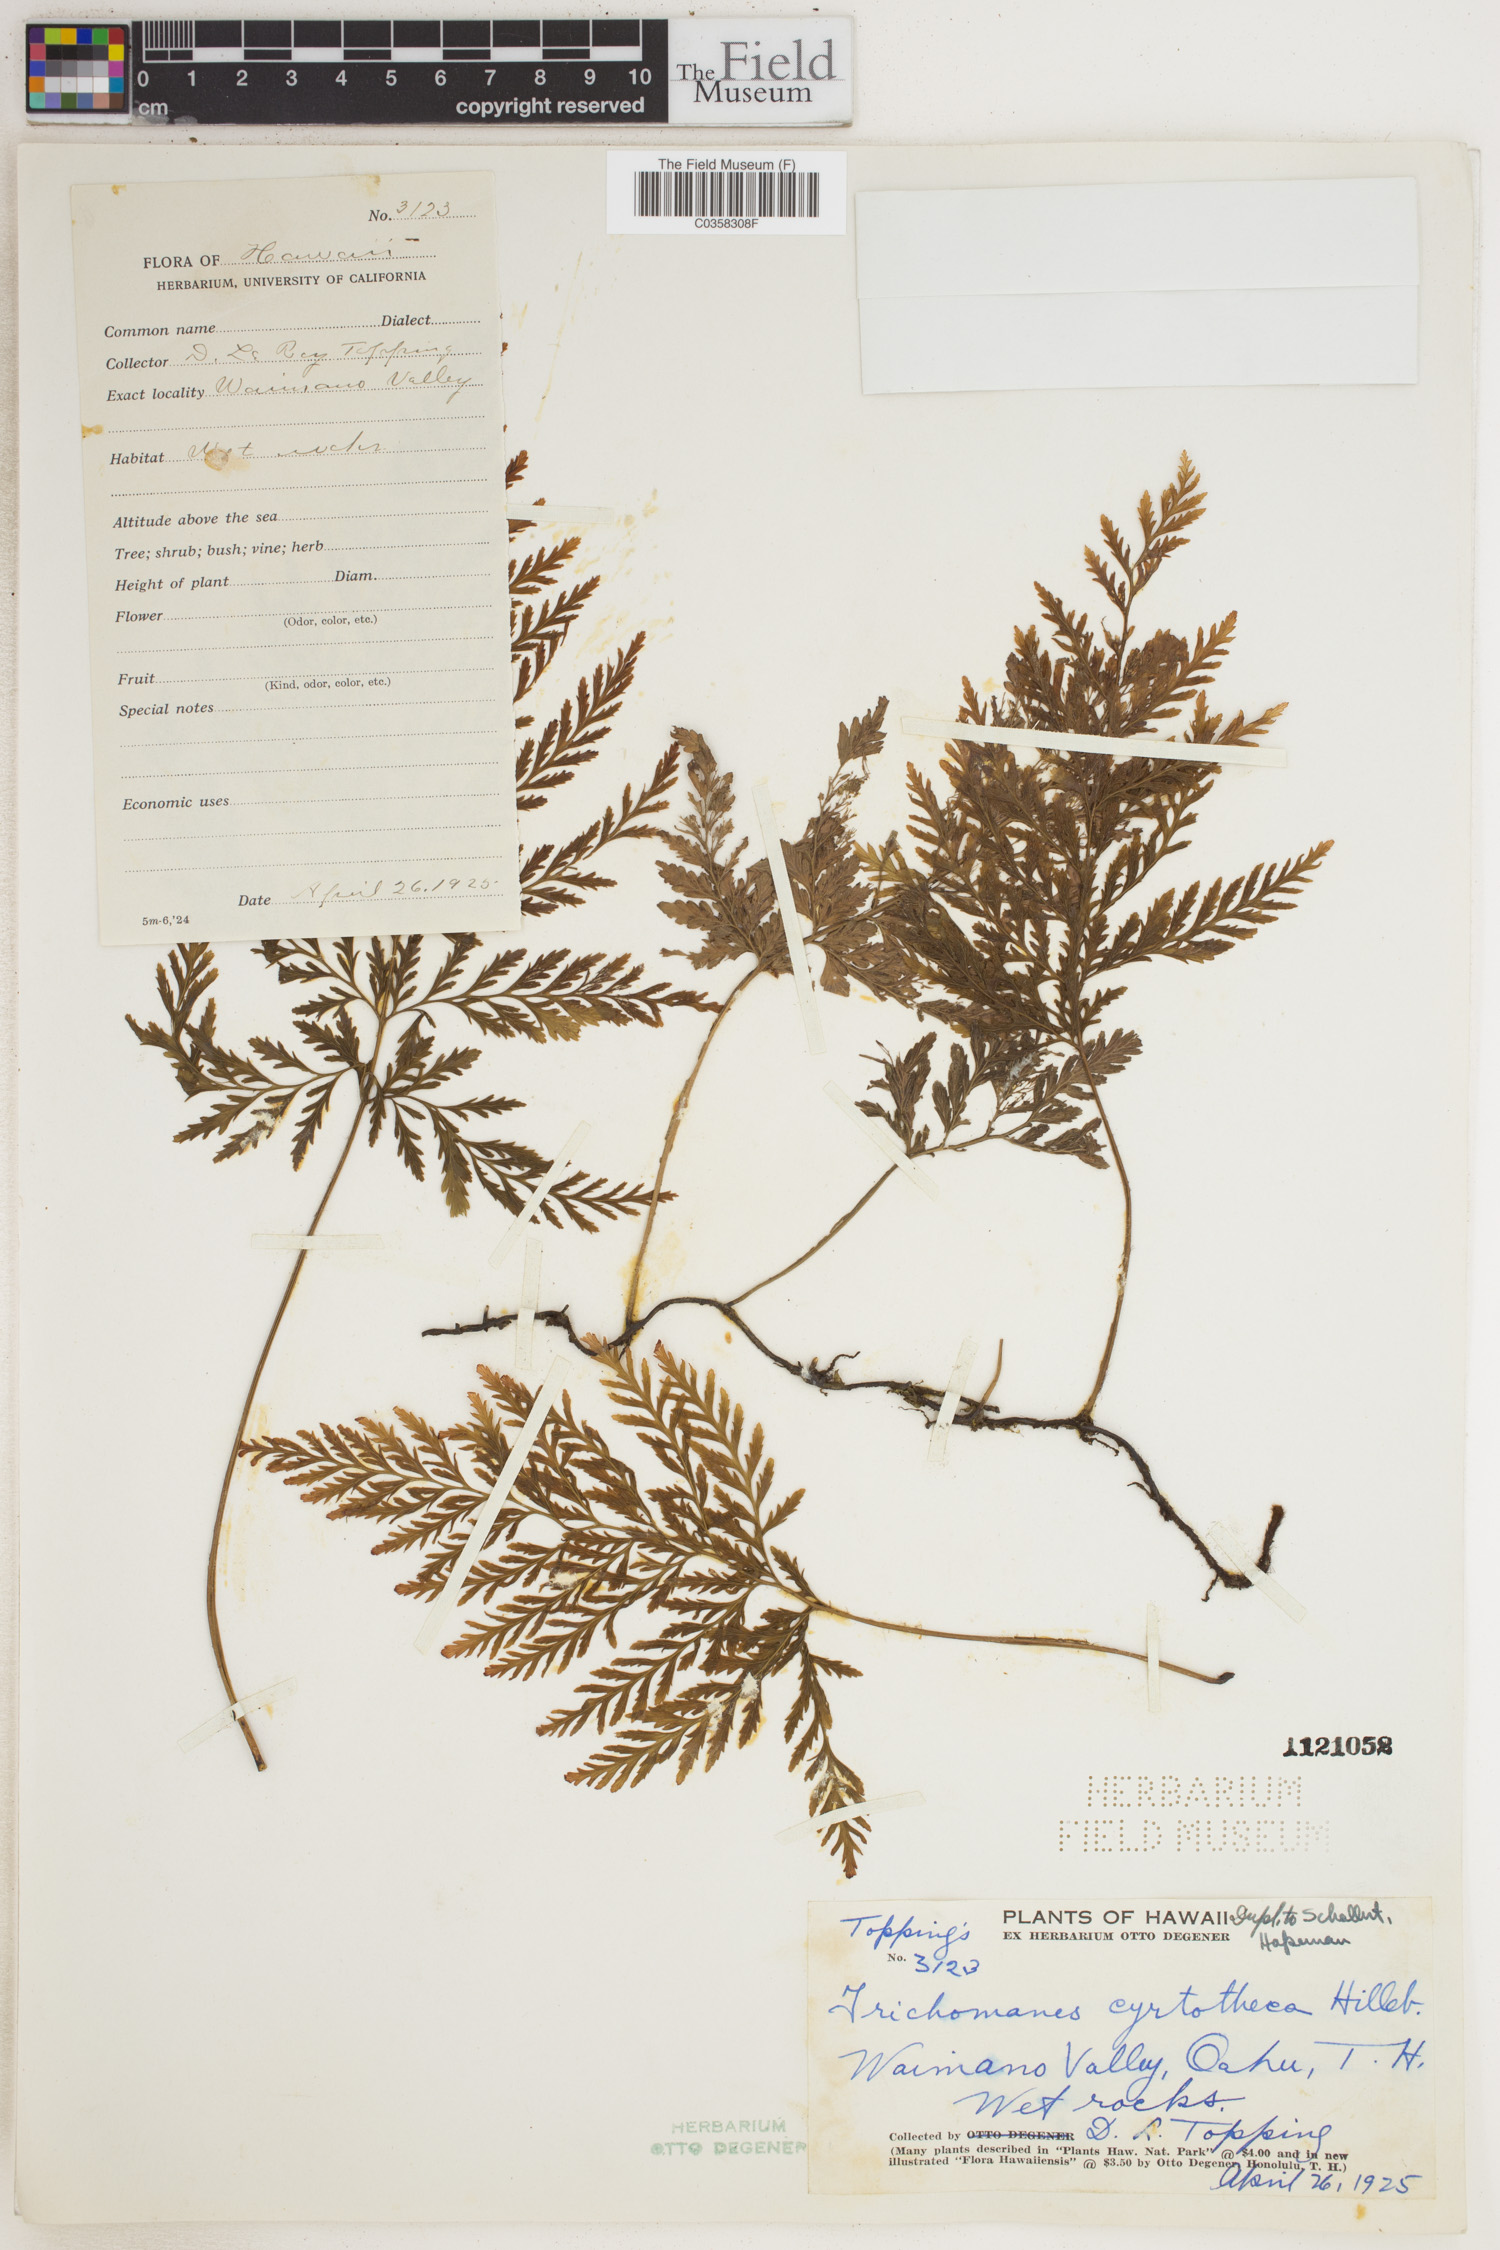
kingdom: Plantae
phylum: Tracheophyta
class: Polypodiopsida
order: Hymenophyllales
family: Hymenophyllaceae
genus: Vandenboschia
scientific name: Vandenboschia cyrtotheca
